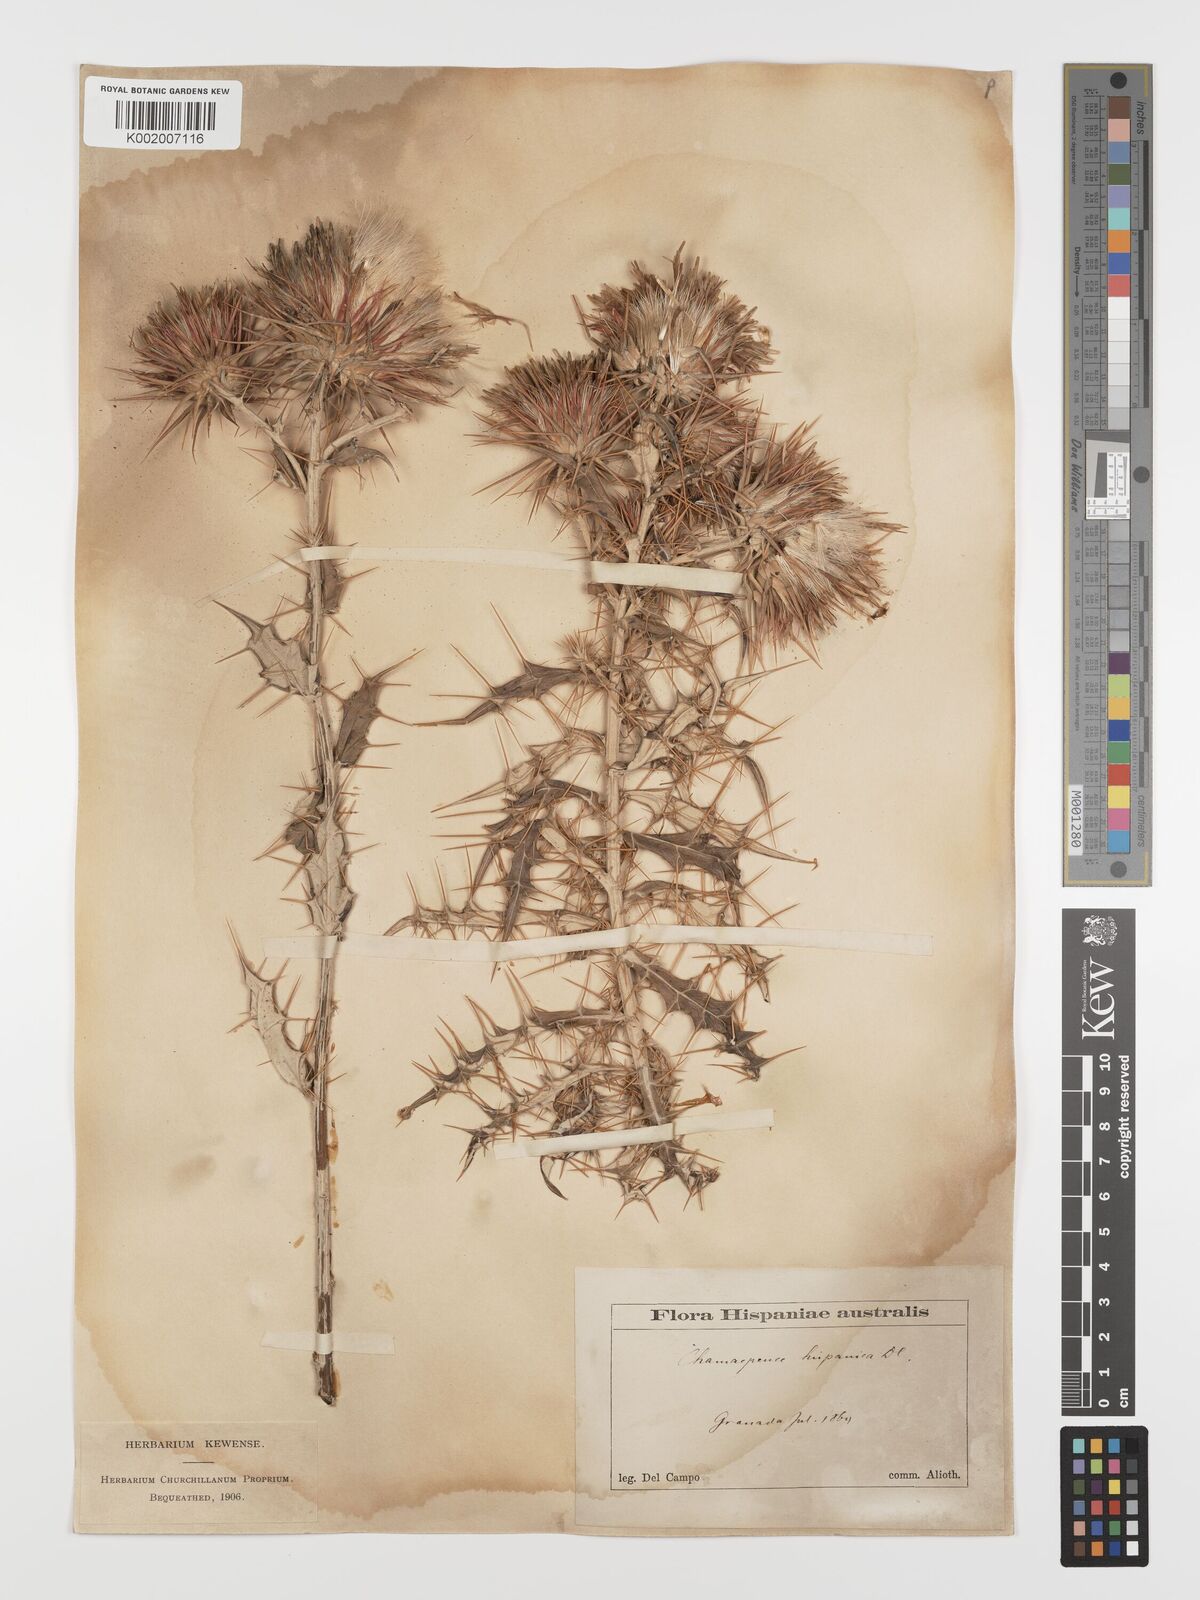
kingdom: Plantae
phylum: Tracheophyta
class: Magnoliopsida
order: Asterales
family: Asteraceae
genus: Ptilostemon
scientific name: Ptilostemon hispanicus
